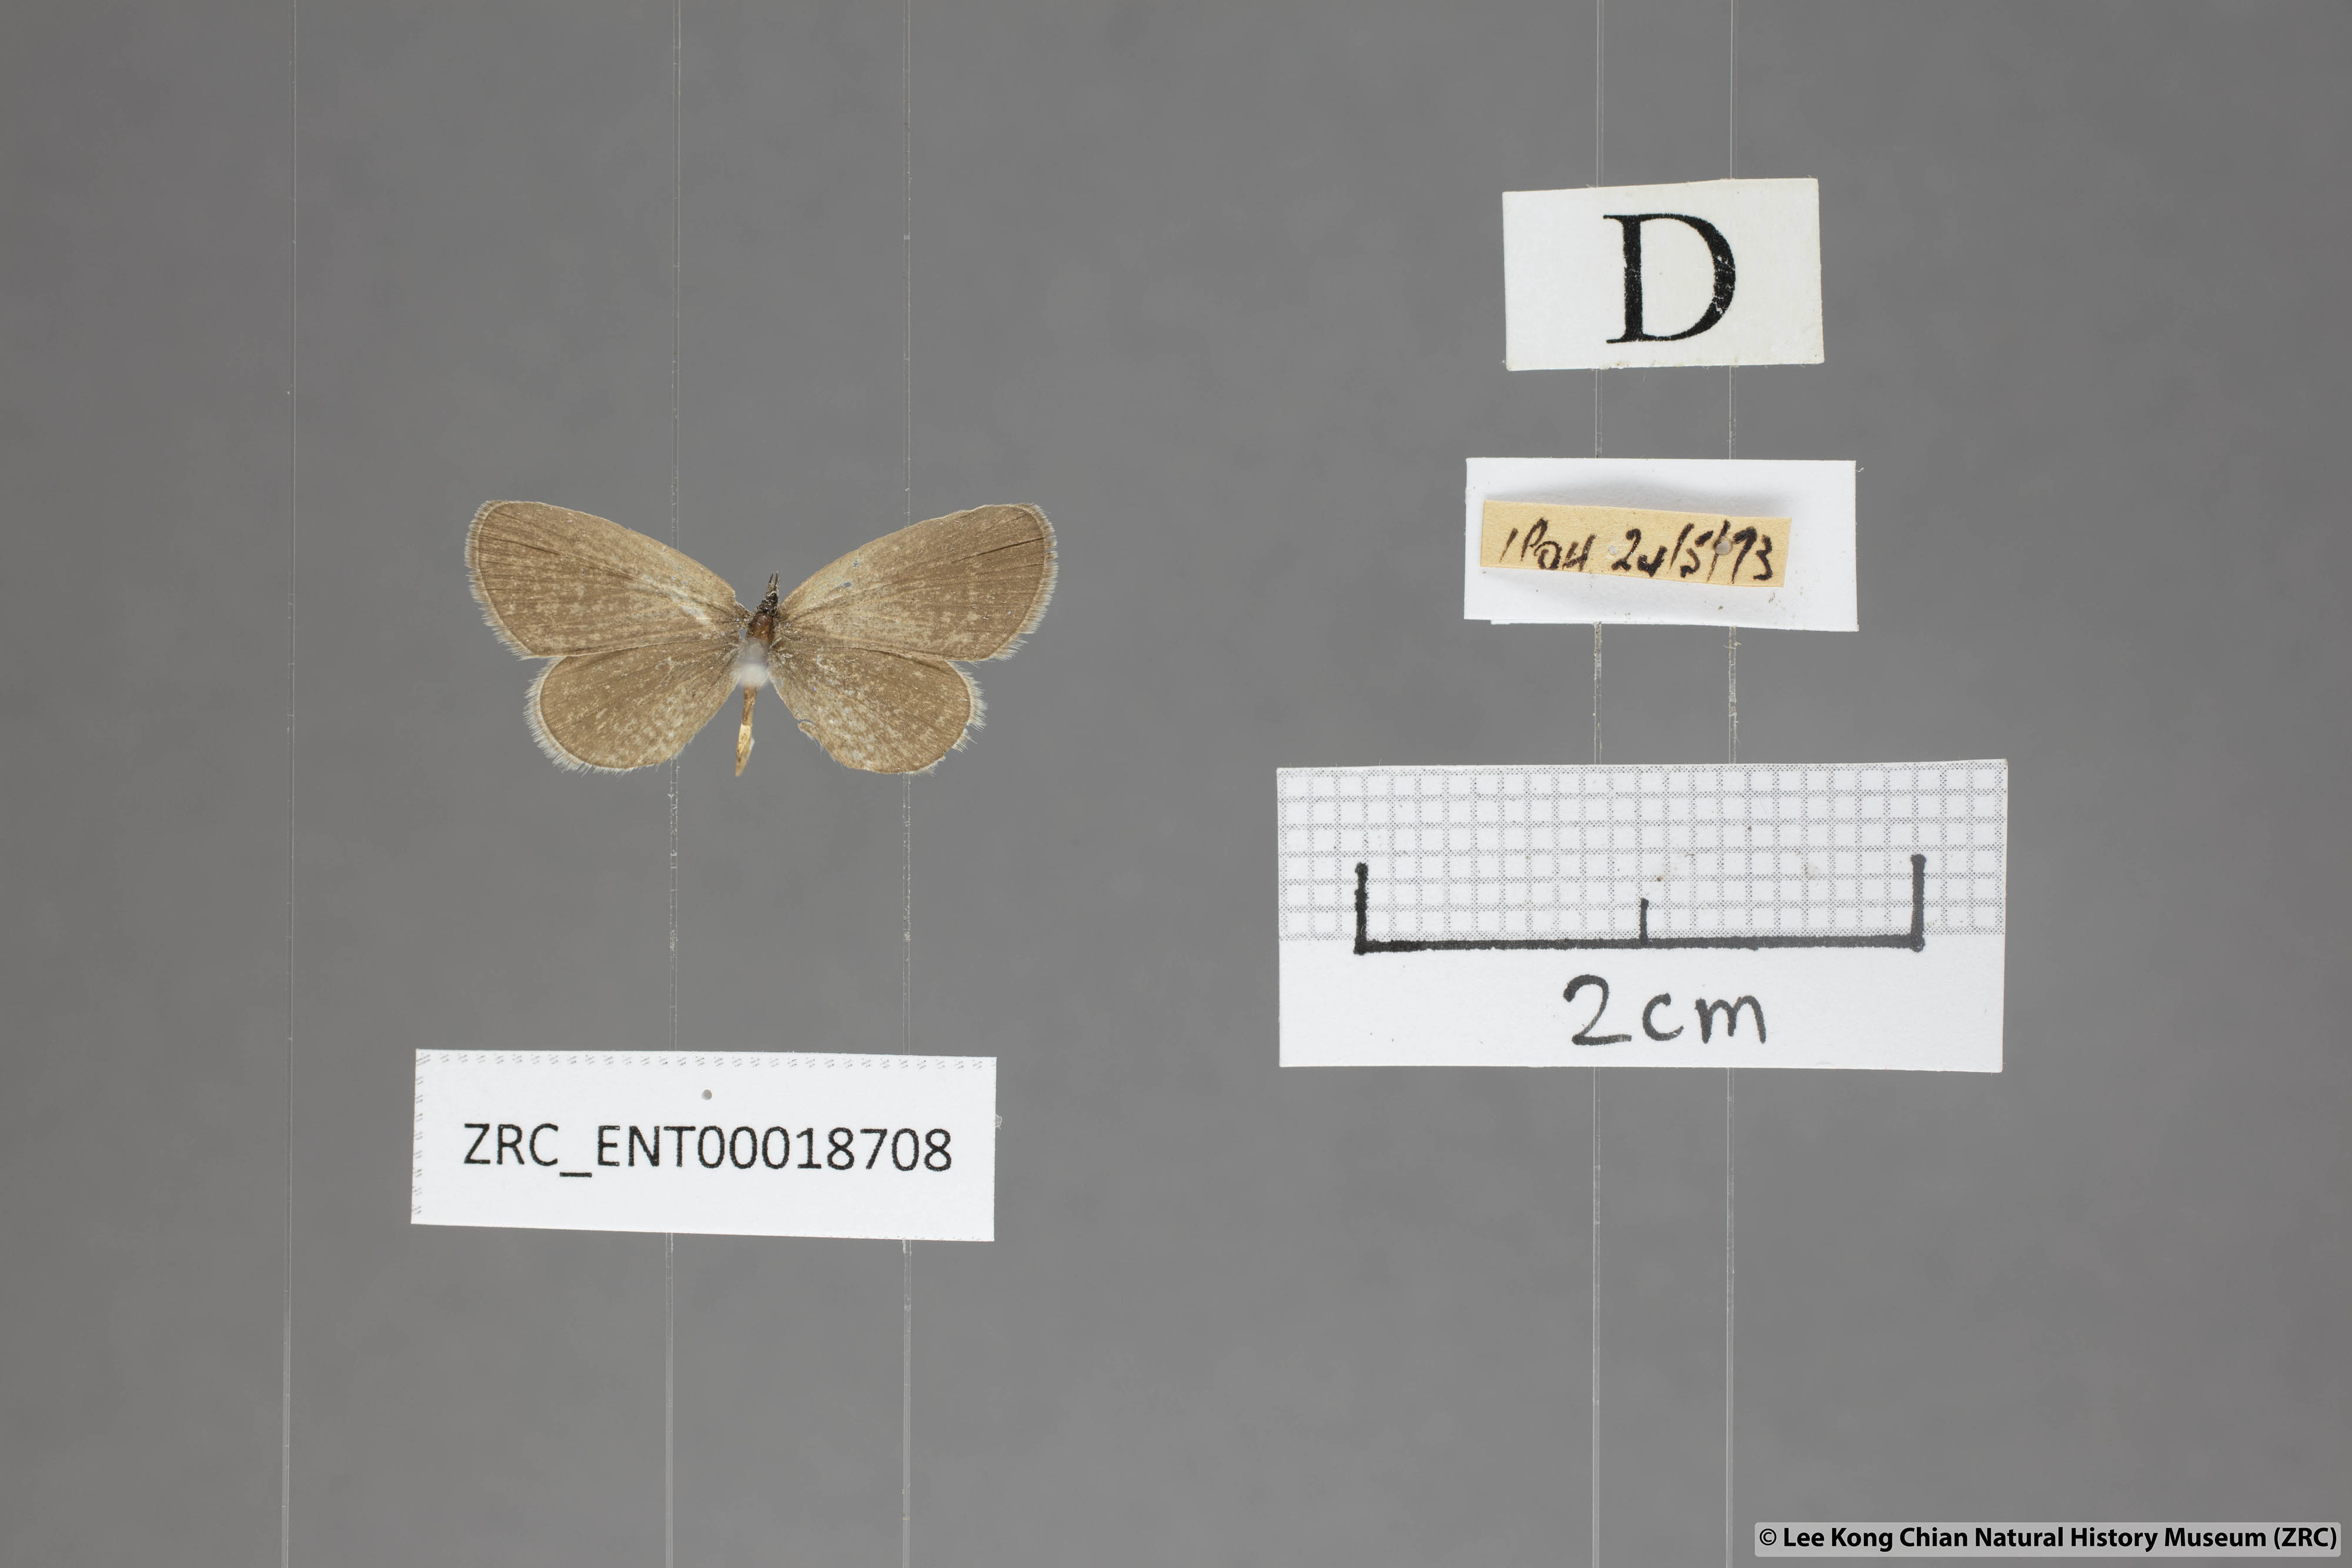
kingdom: Animalia
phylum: Arthropoda
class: Insecta
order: Lepidoptera
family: Lycaenidae
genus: Zizula
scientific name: Zizula hylax
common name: Gaika blue
